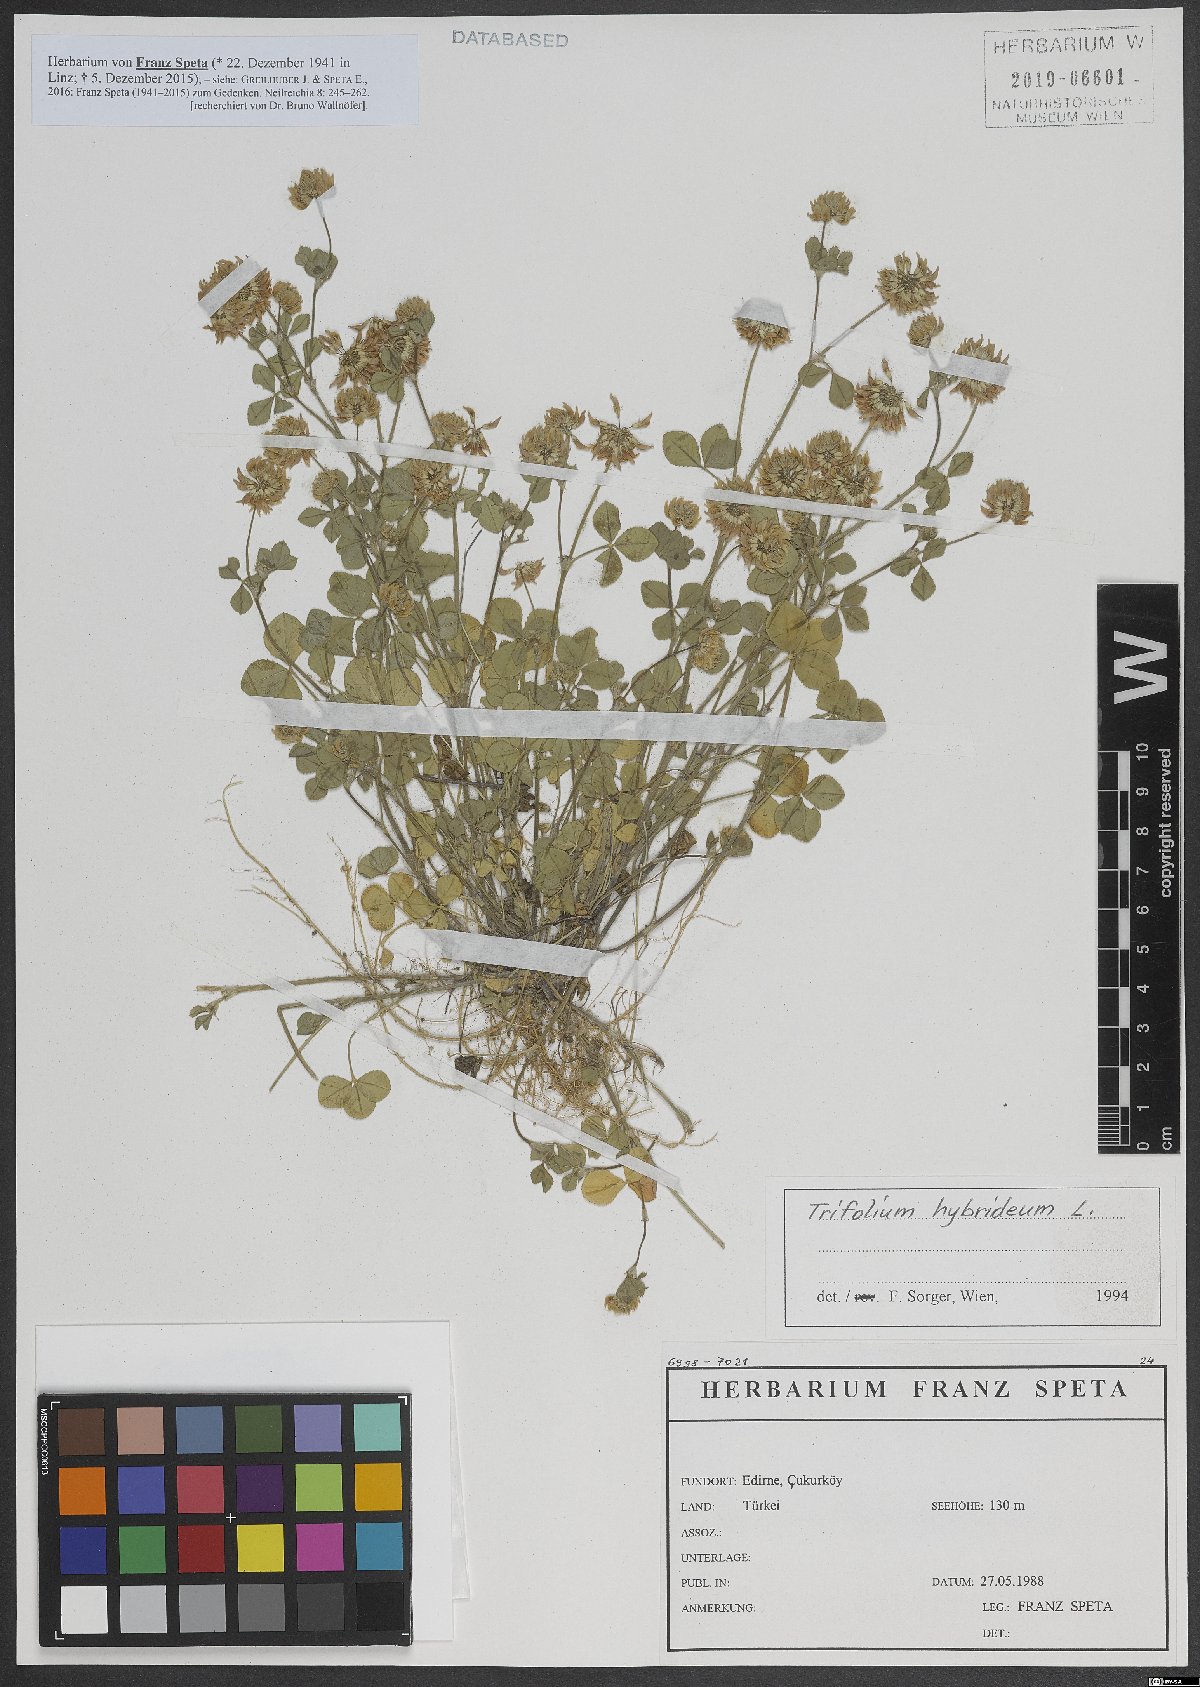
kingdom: Plantae
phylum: Tracheophyta
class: Magnoliopsida
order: Fabales
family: Fabaceae
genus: Trifolium
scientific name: Trifolium hybridum
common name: Alsike clover
